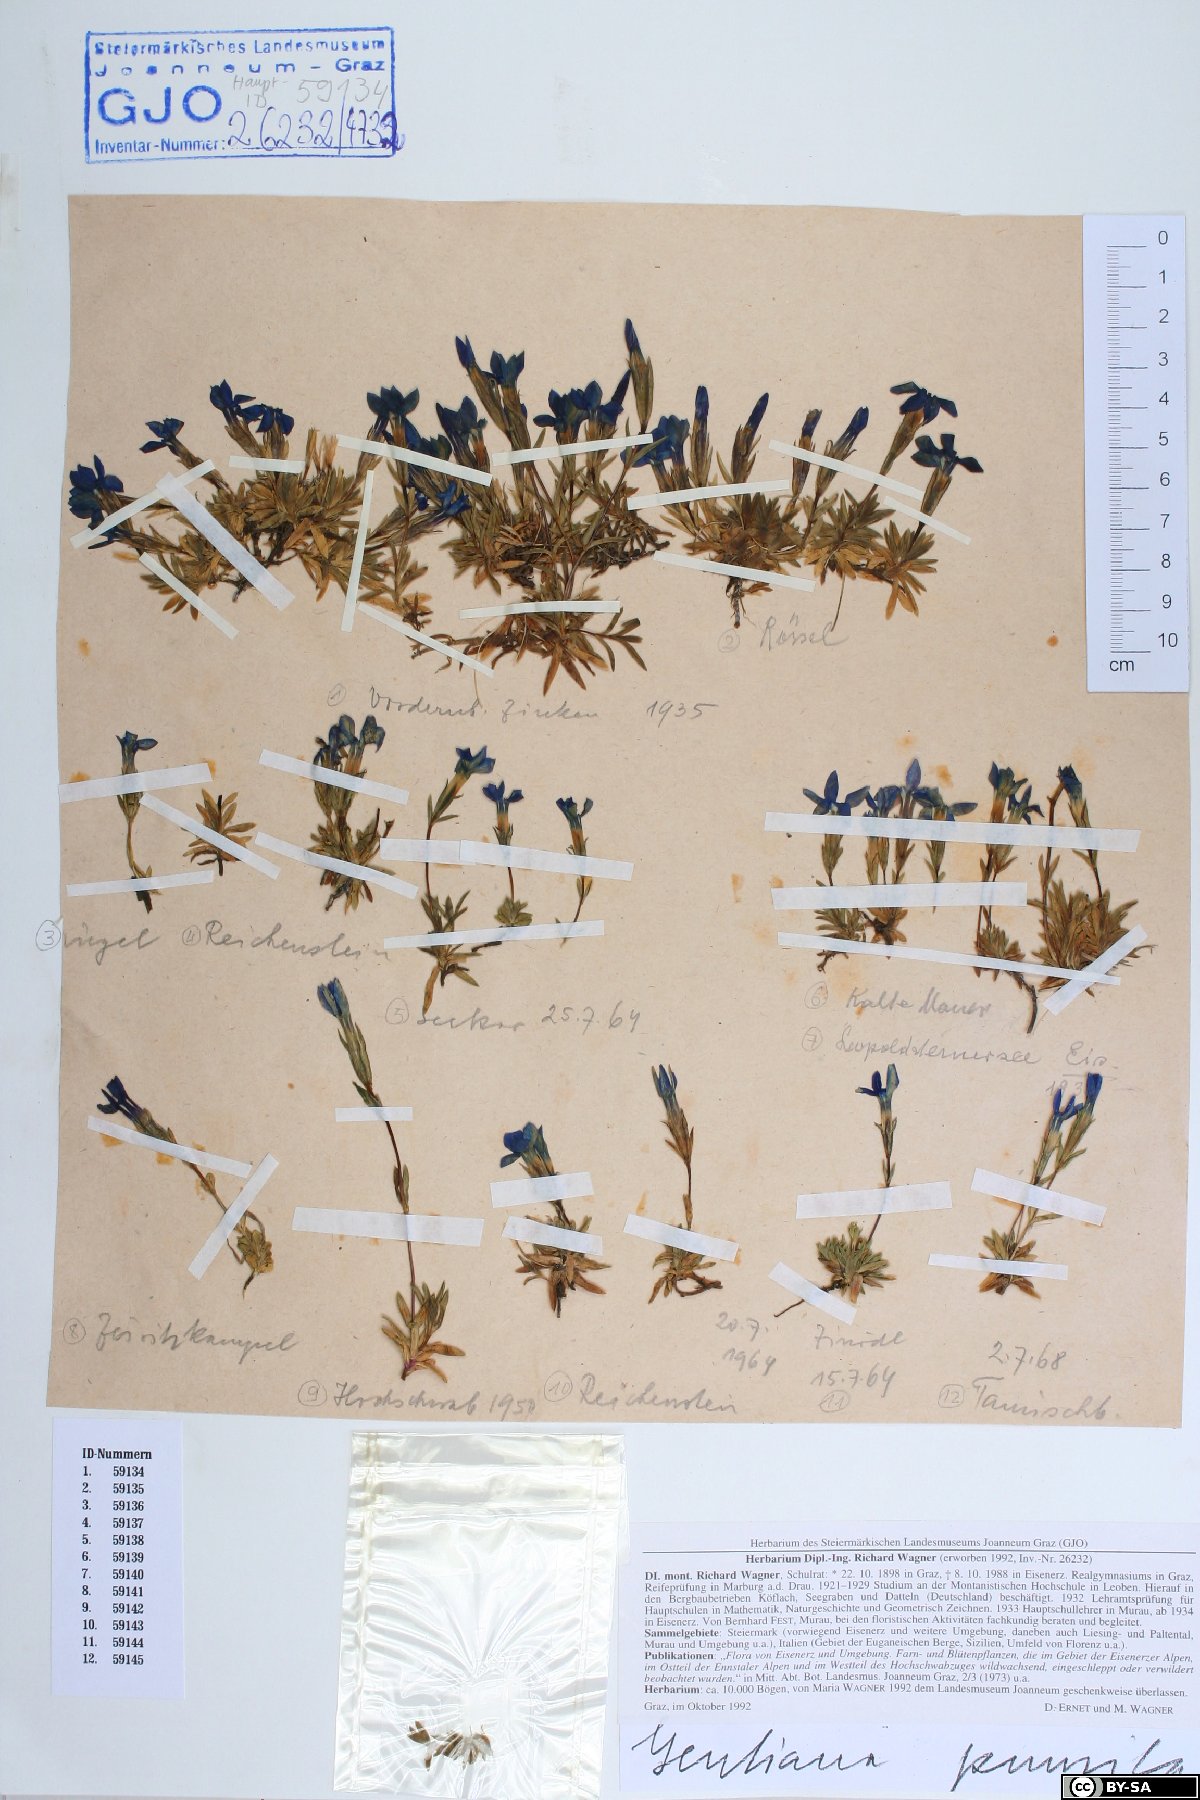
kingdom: Plantae
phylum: Tracheophyta
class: Magnoliopsida
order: Gentianales
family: Gentianaceae
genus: Gentiana
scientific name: Gentiana pumila
